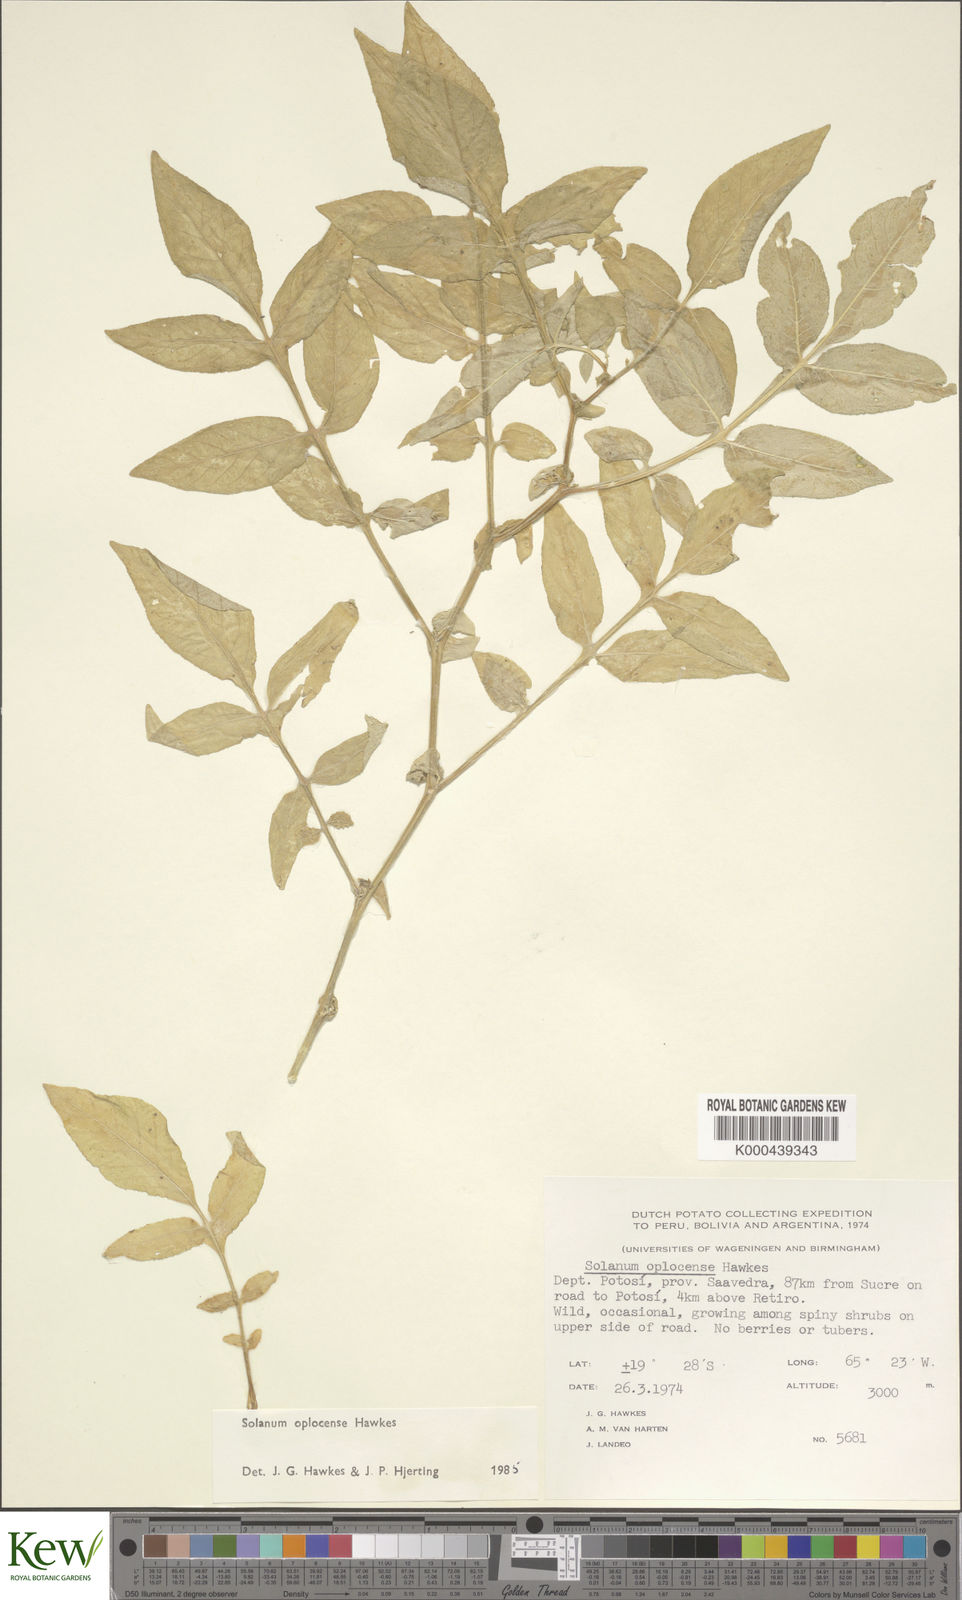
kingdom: Plantae
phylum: Tracheophyta
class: Magnoliopsida
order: Solanales
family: Solanaceae
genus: Solanum
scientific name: Solanum brevicaule
